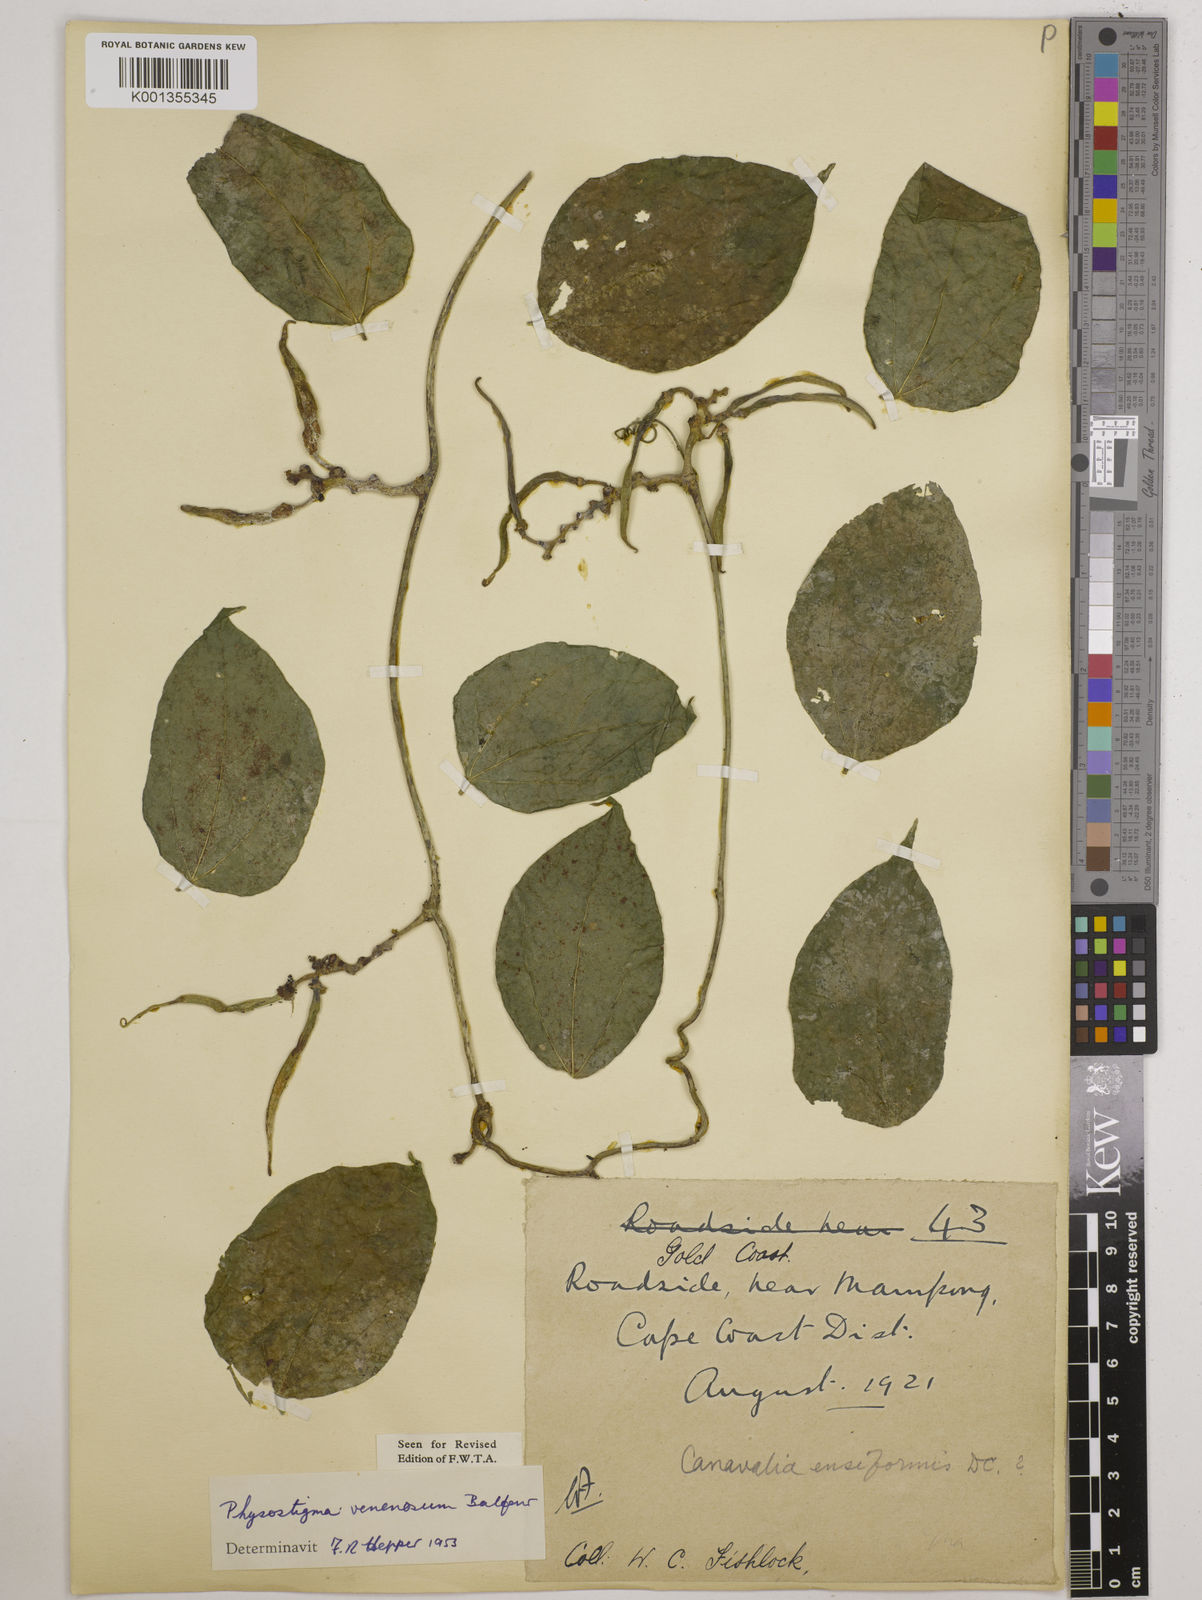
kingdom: Plantae
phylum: Tracheophyta
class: Magnoliopsida
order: Fabales
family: Fabaceae
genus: Physostigma
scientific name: Physostigma venenosum
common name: Calabar-bean
